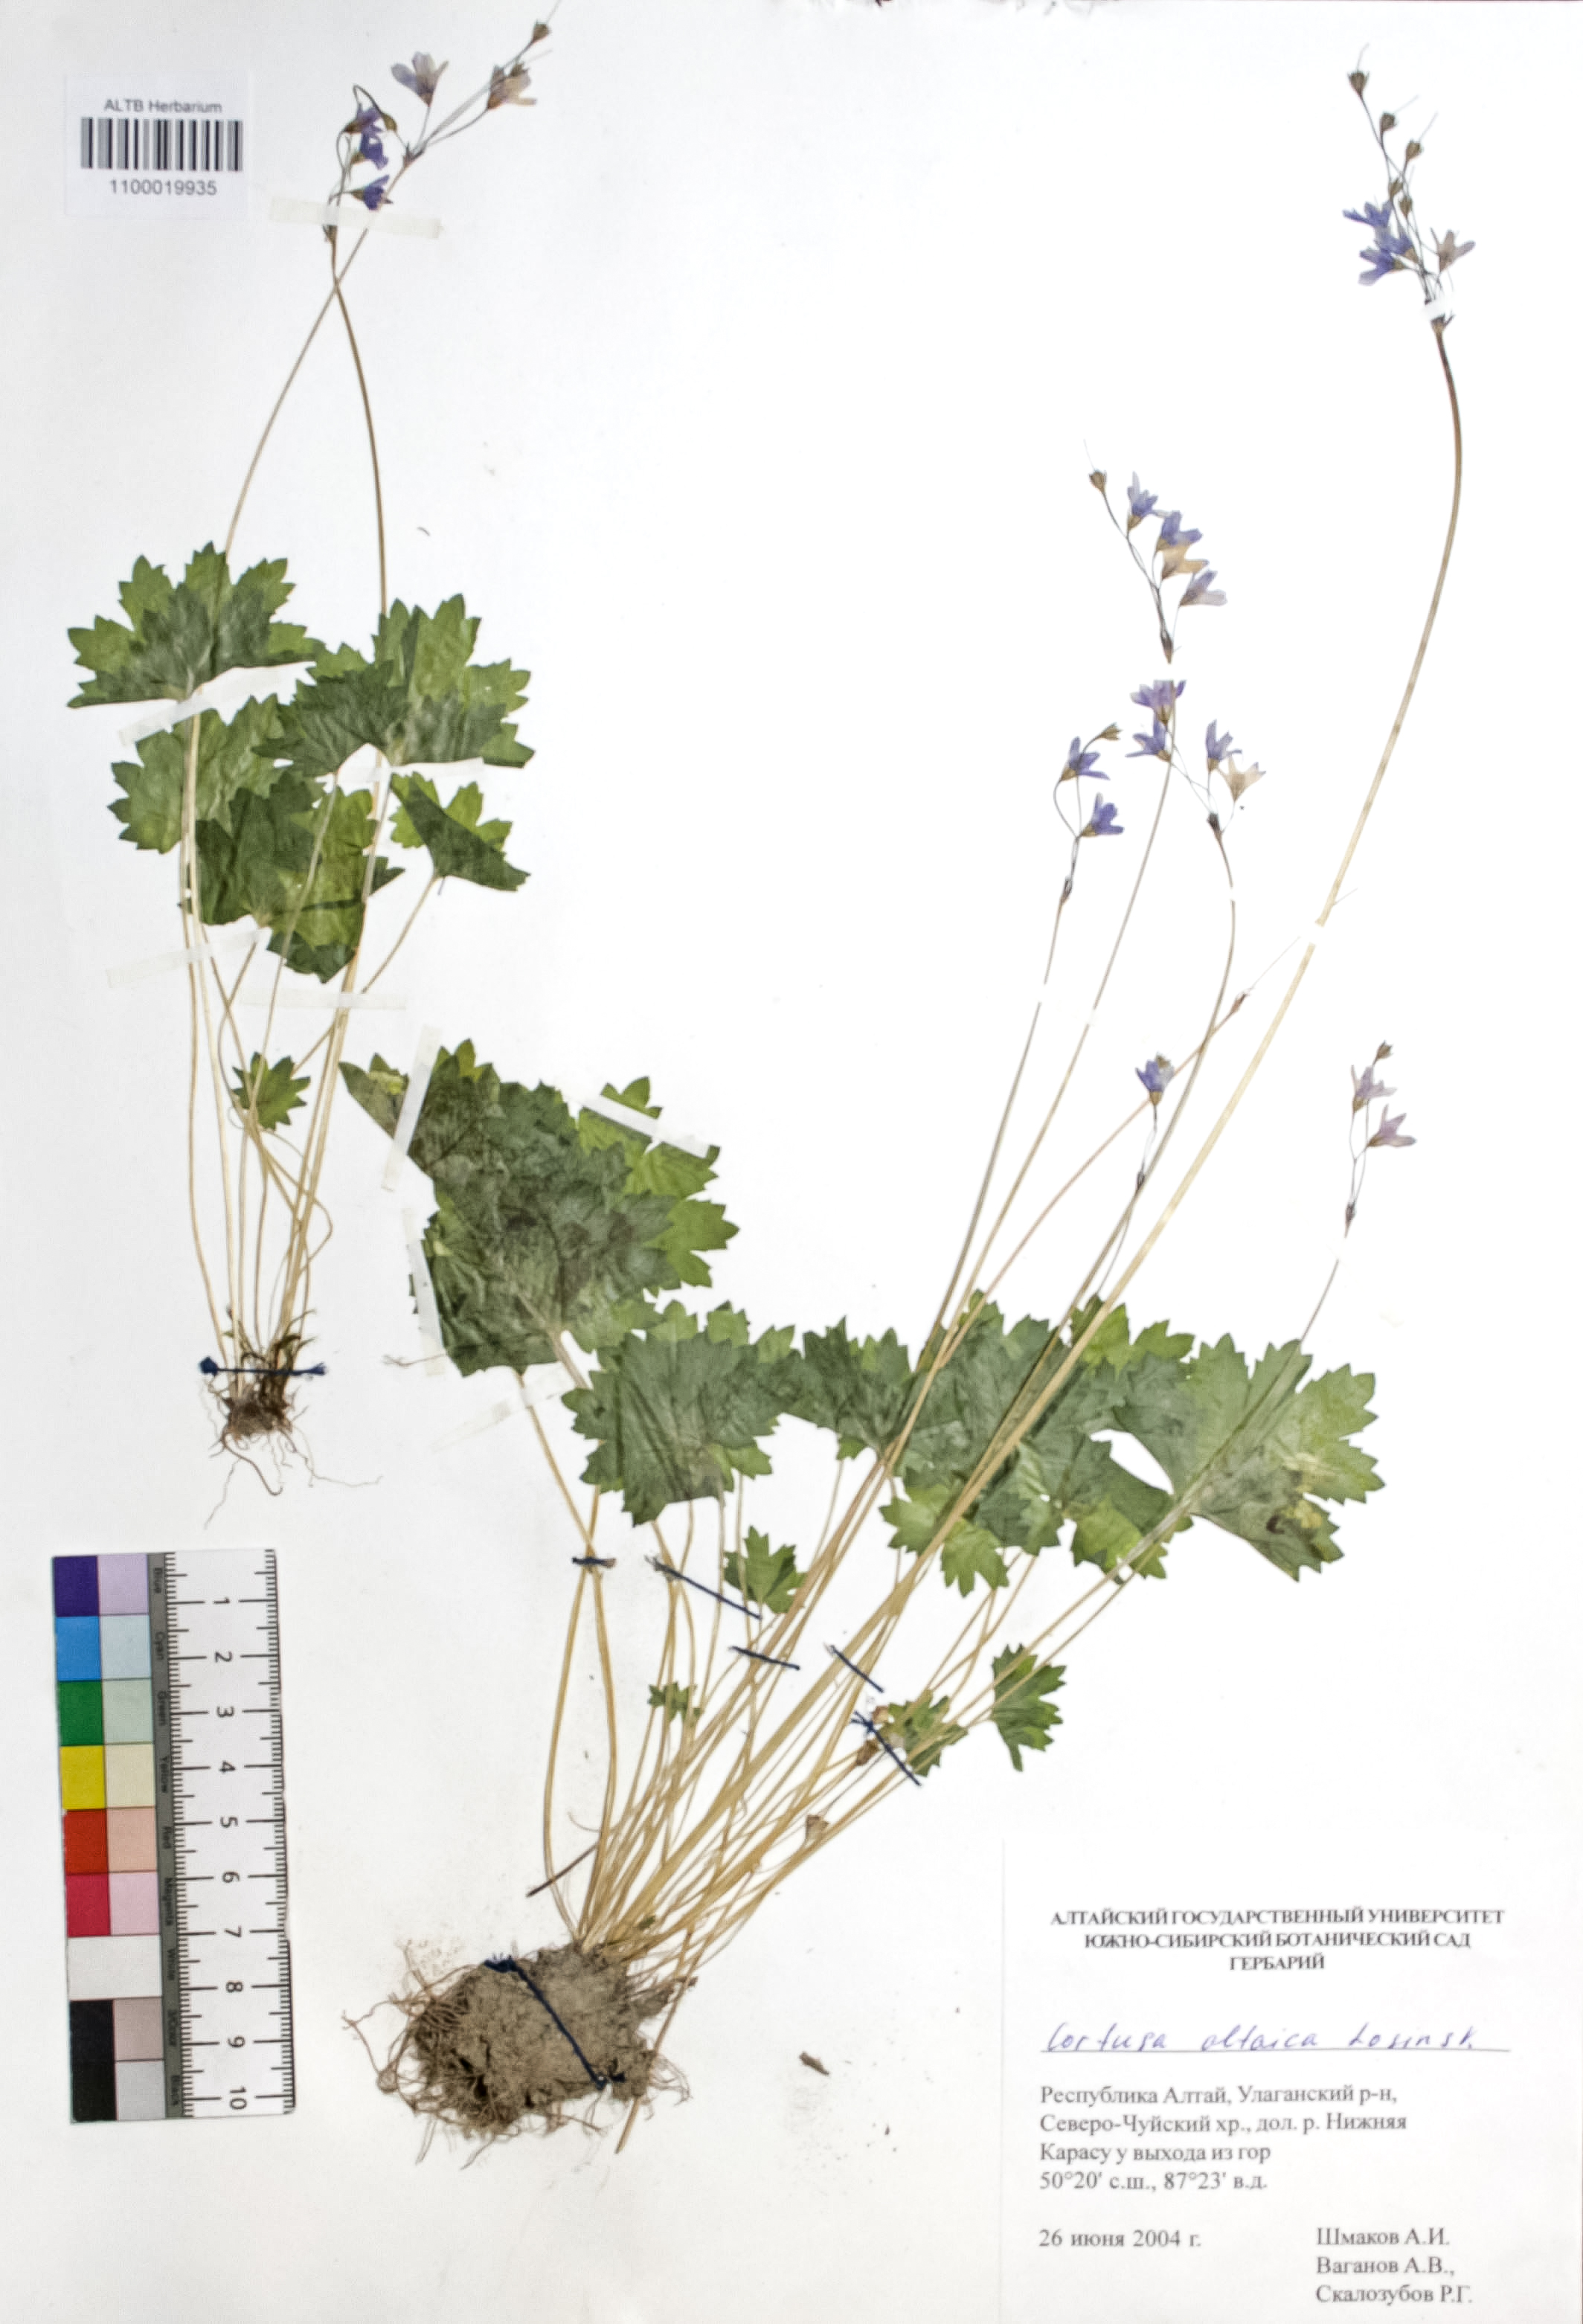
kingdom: Plantae
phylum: Tracheophyta
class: Magnoliopsida
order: Ericales
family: Primulaceae
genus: Primula
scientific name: Primula matthioli
